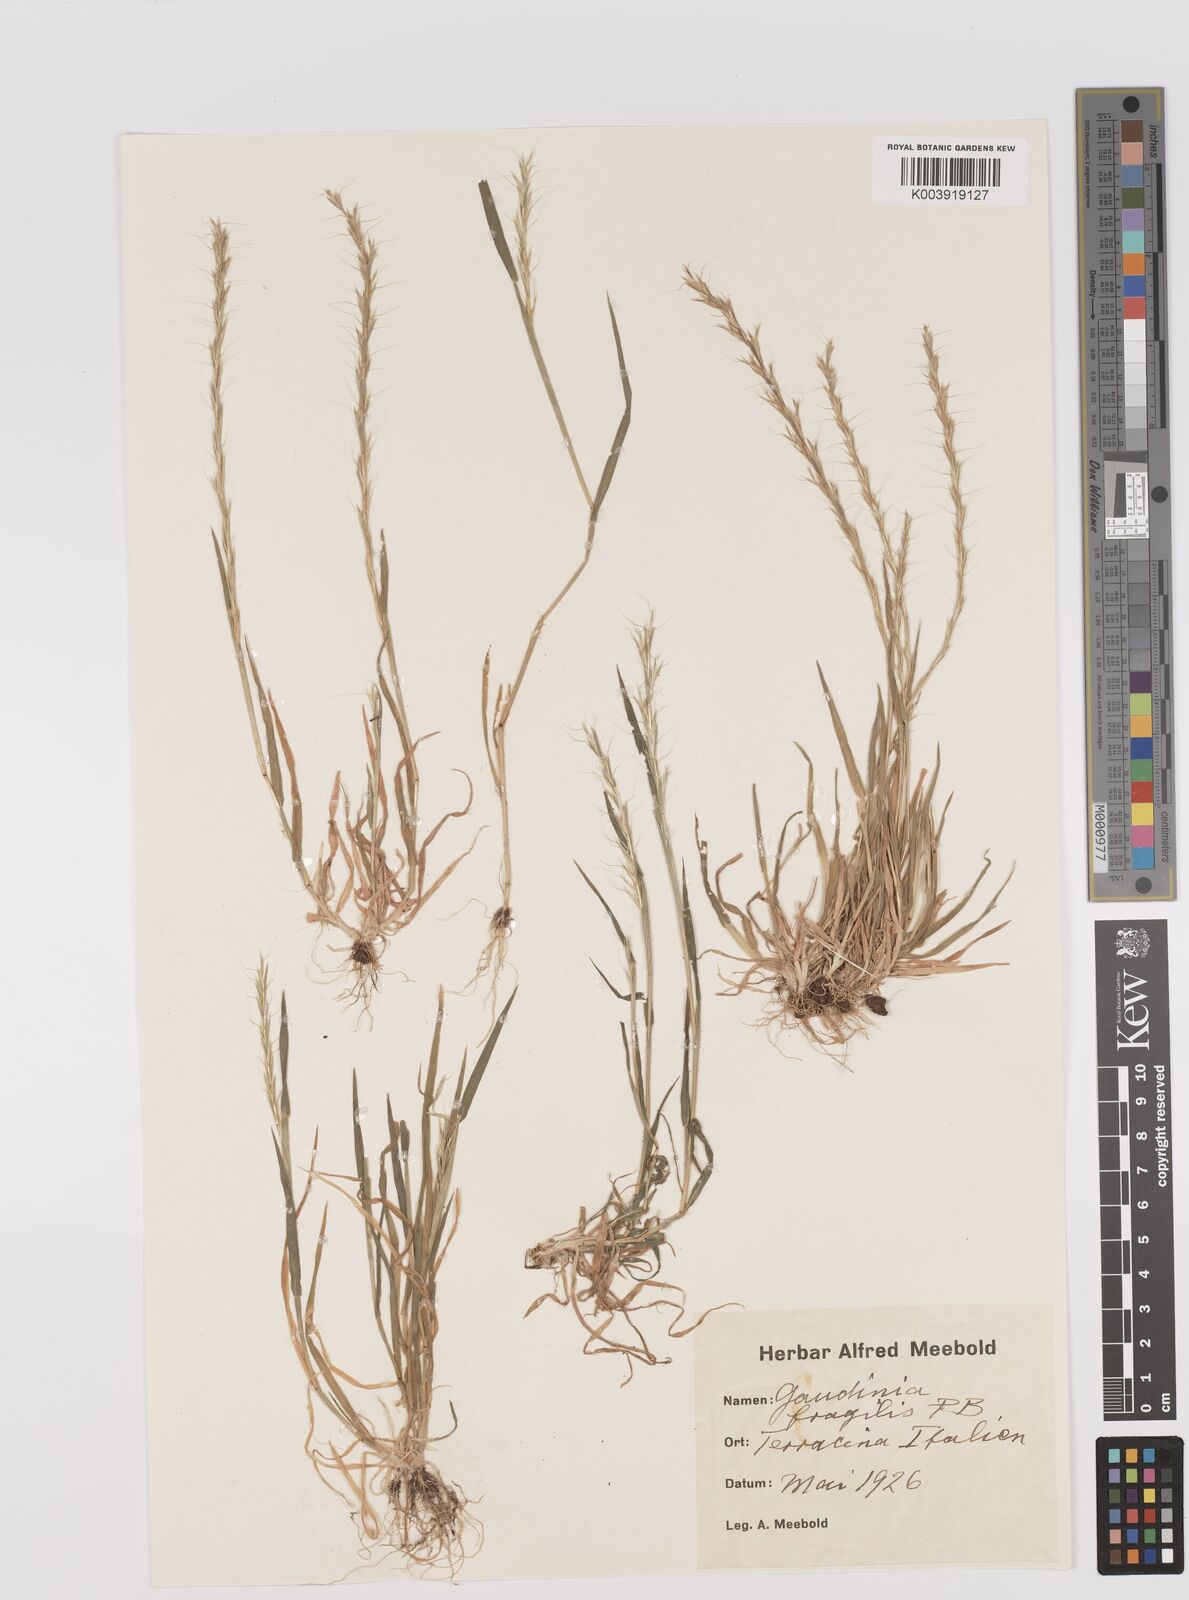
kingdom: Plantae
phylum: Tracheophyta
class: Liliopsida
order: Poales
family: Poaceae
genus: Gaudinia
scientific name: Gaudinia fragilis
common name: French oat-grass
